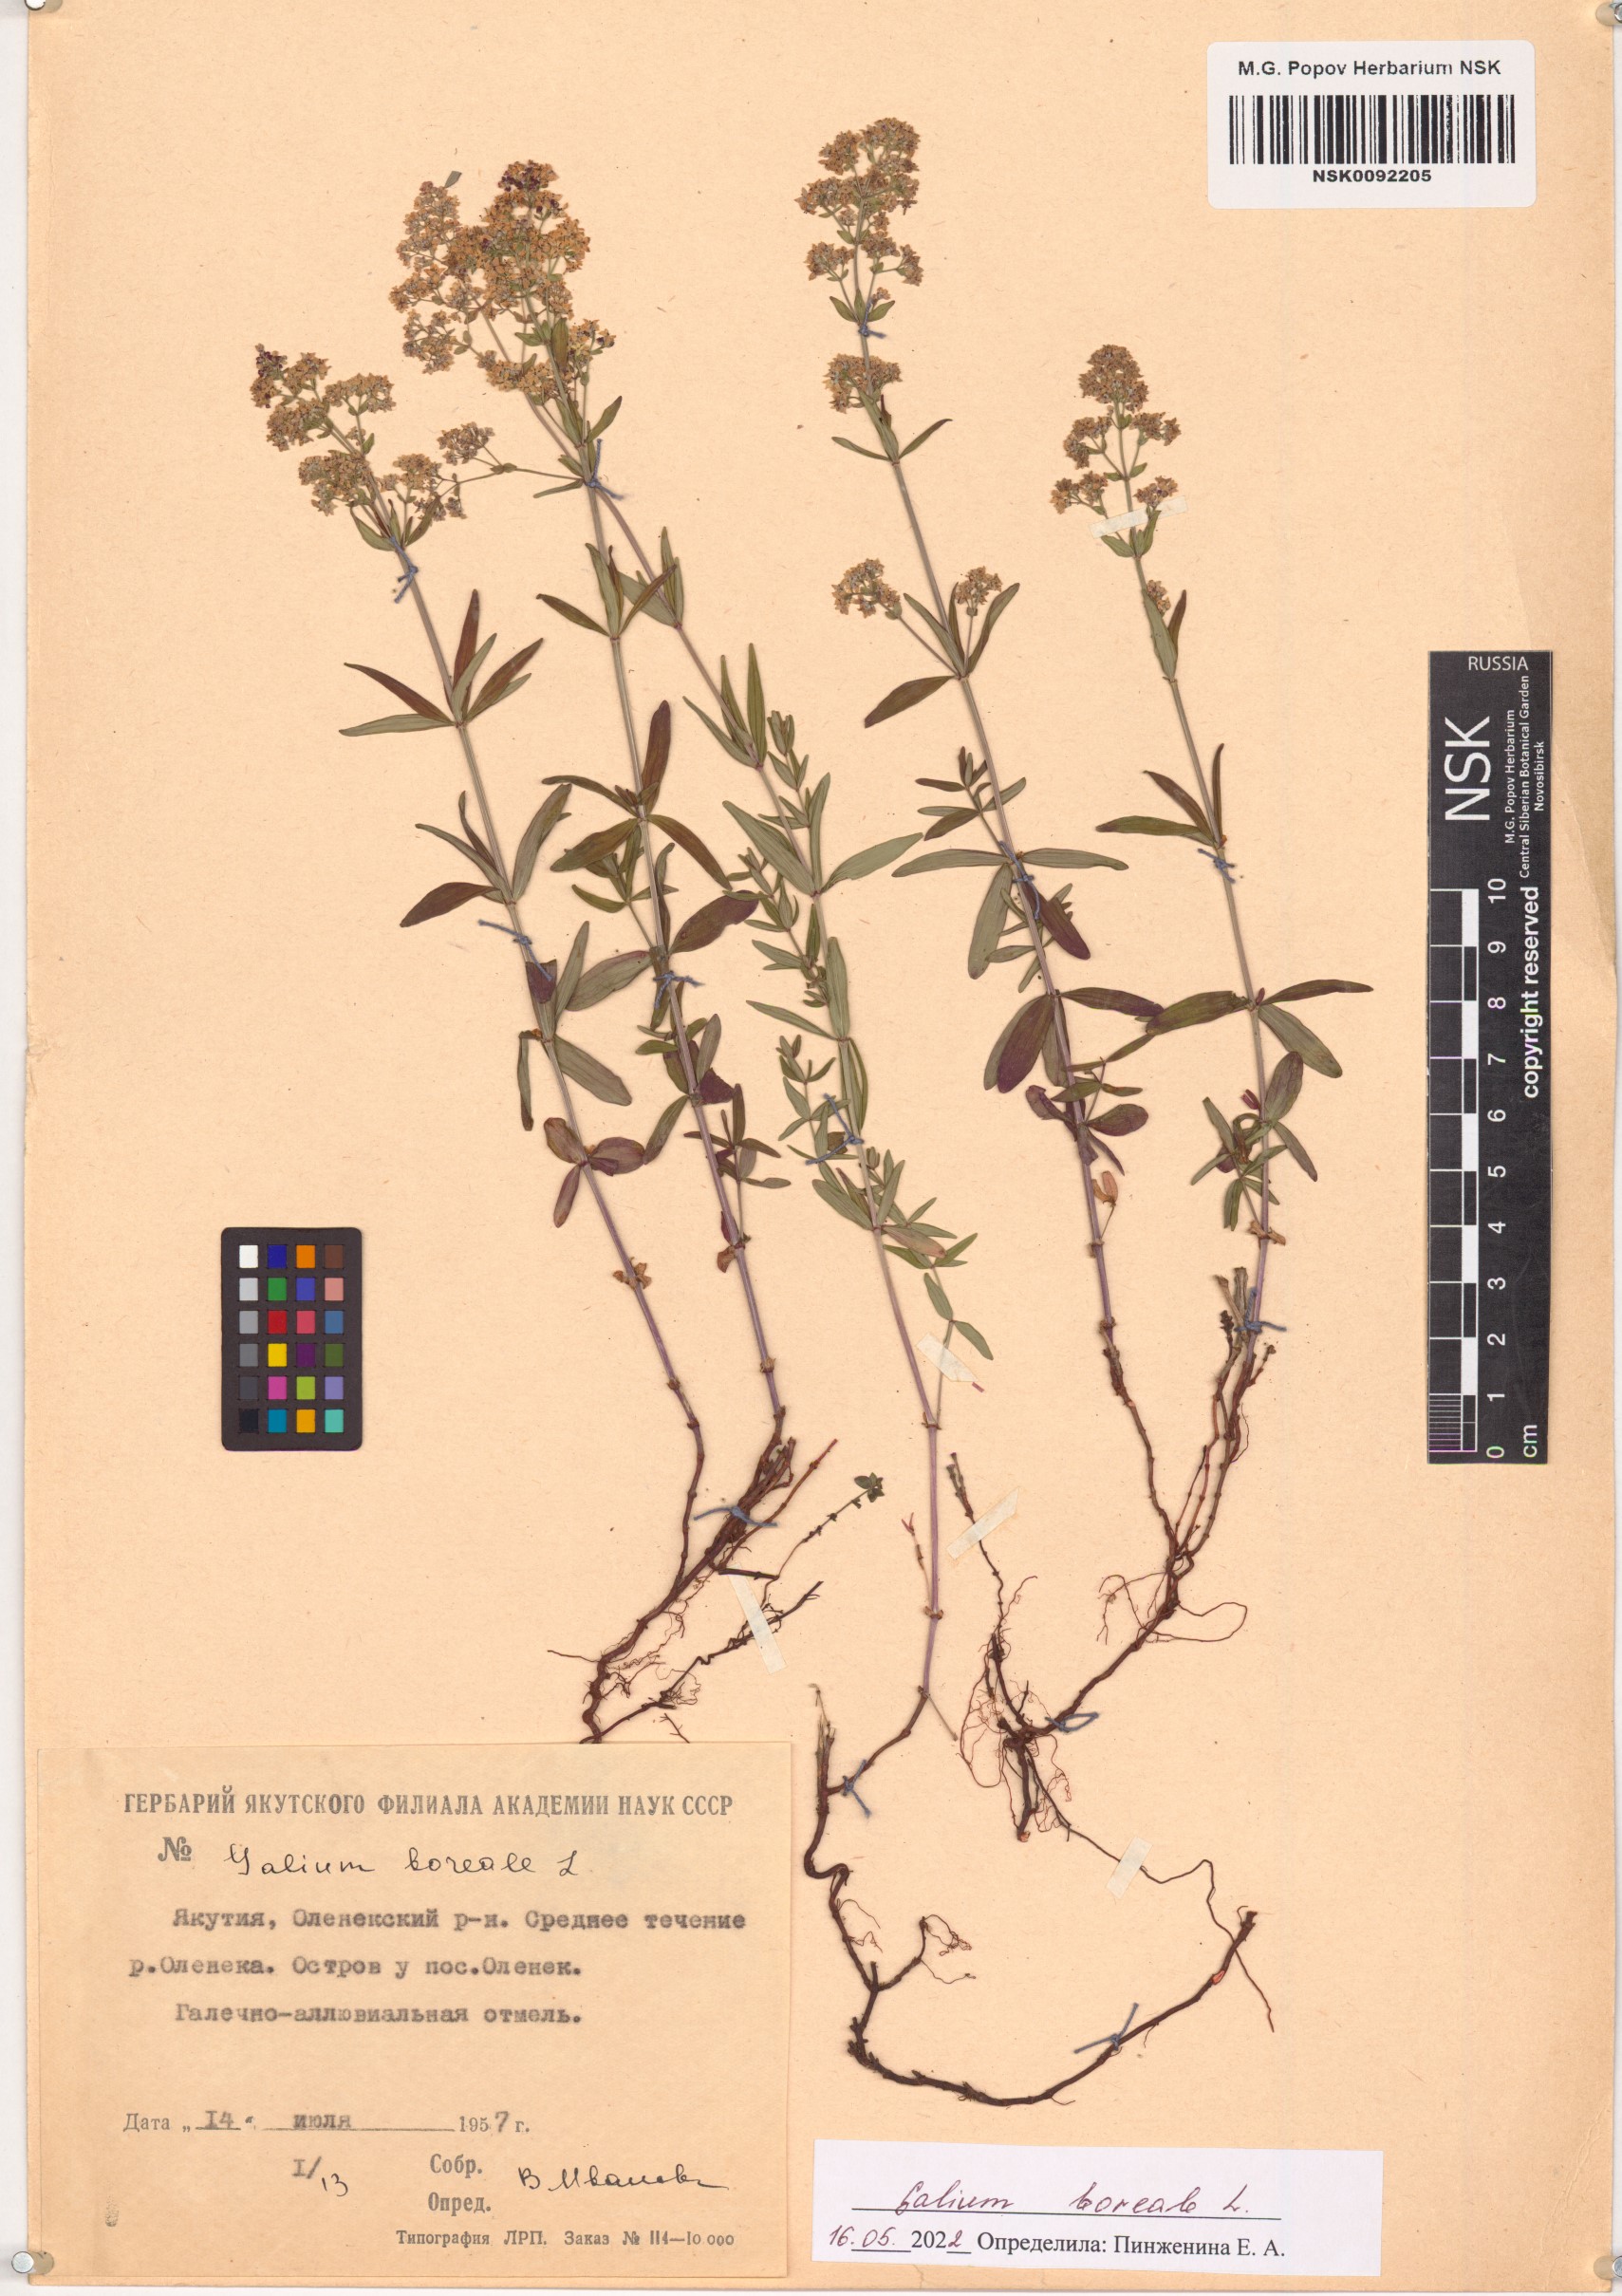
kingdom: Plantae
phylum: Tracheophyta
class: Magnoliopsida
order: Gentianales
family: Rubiaceae
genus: Galium
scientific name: Galium boreale
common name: Northern bedstraw
